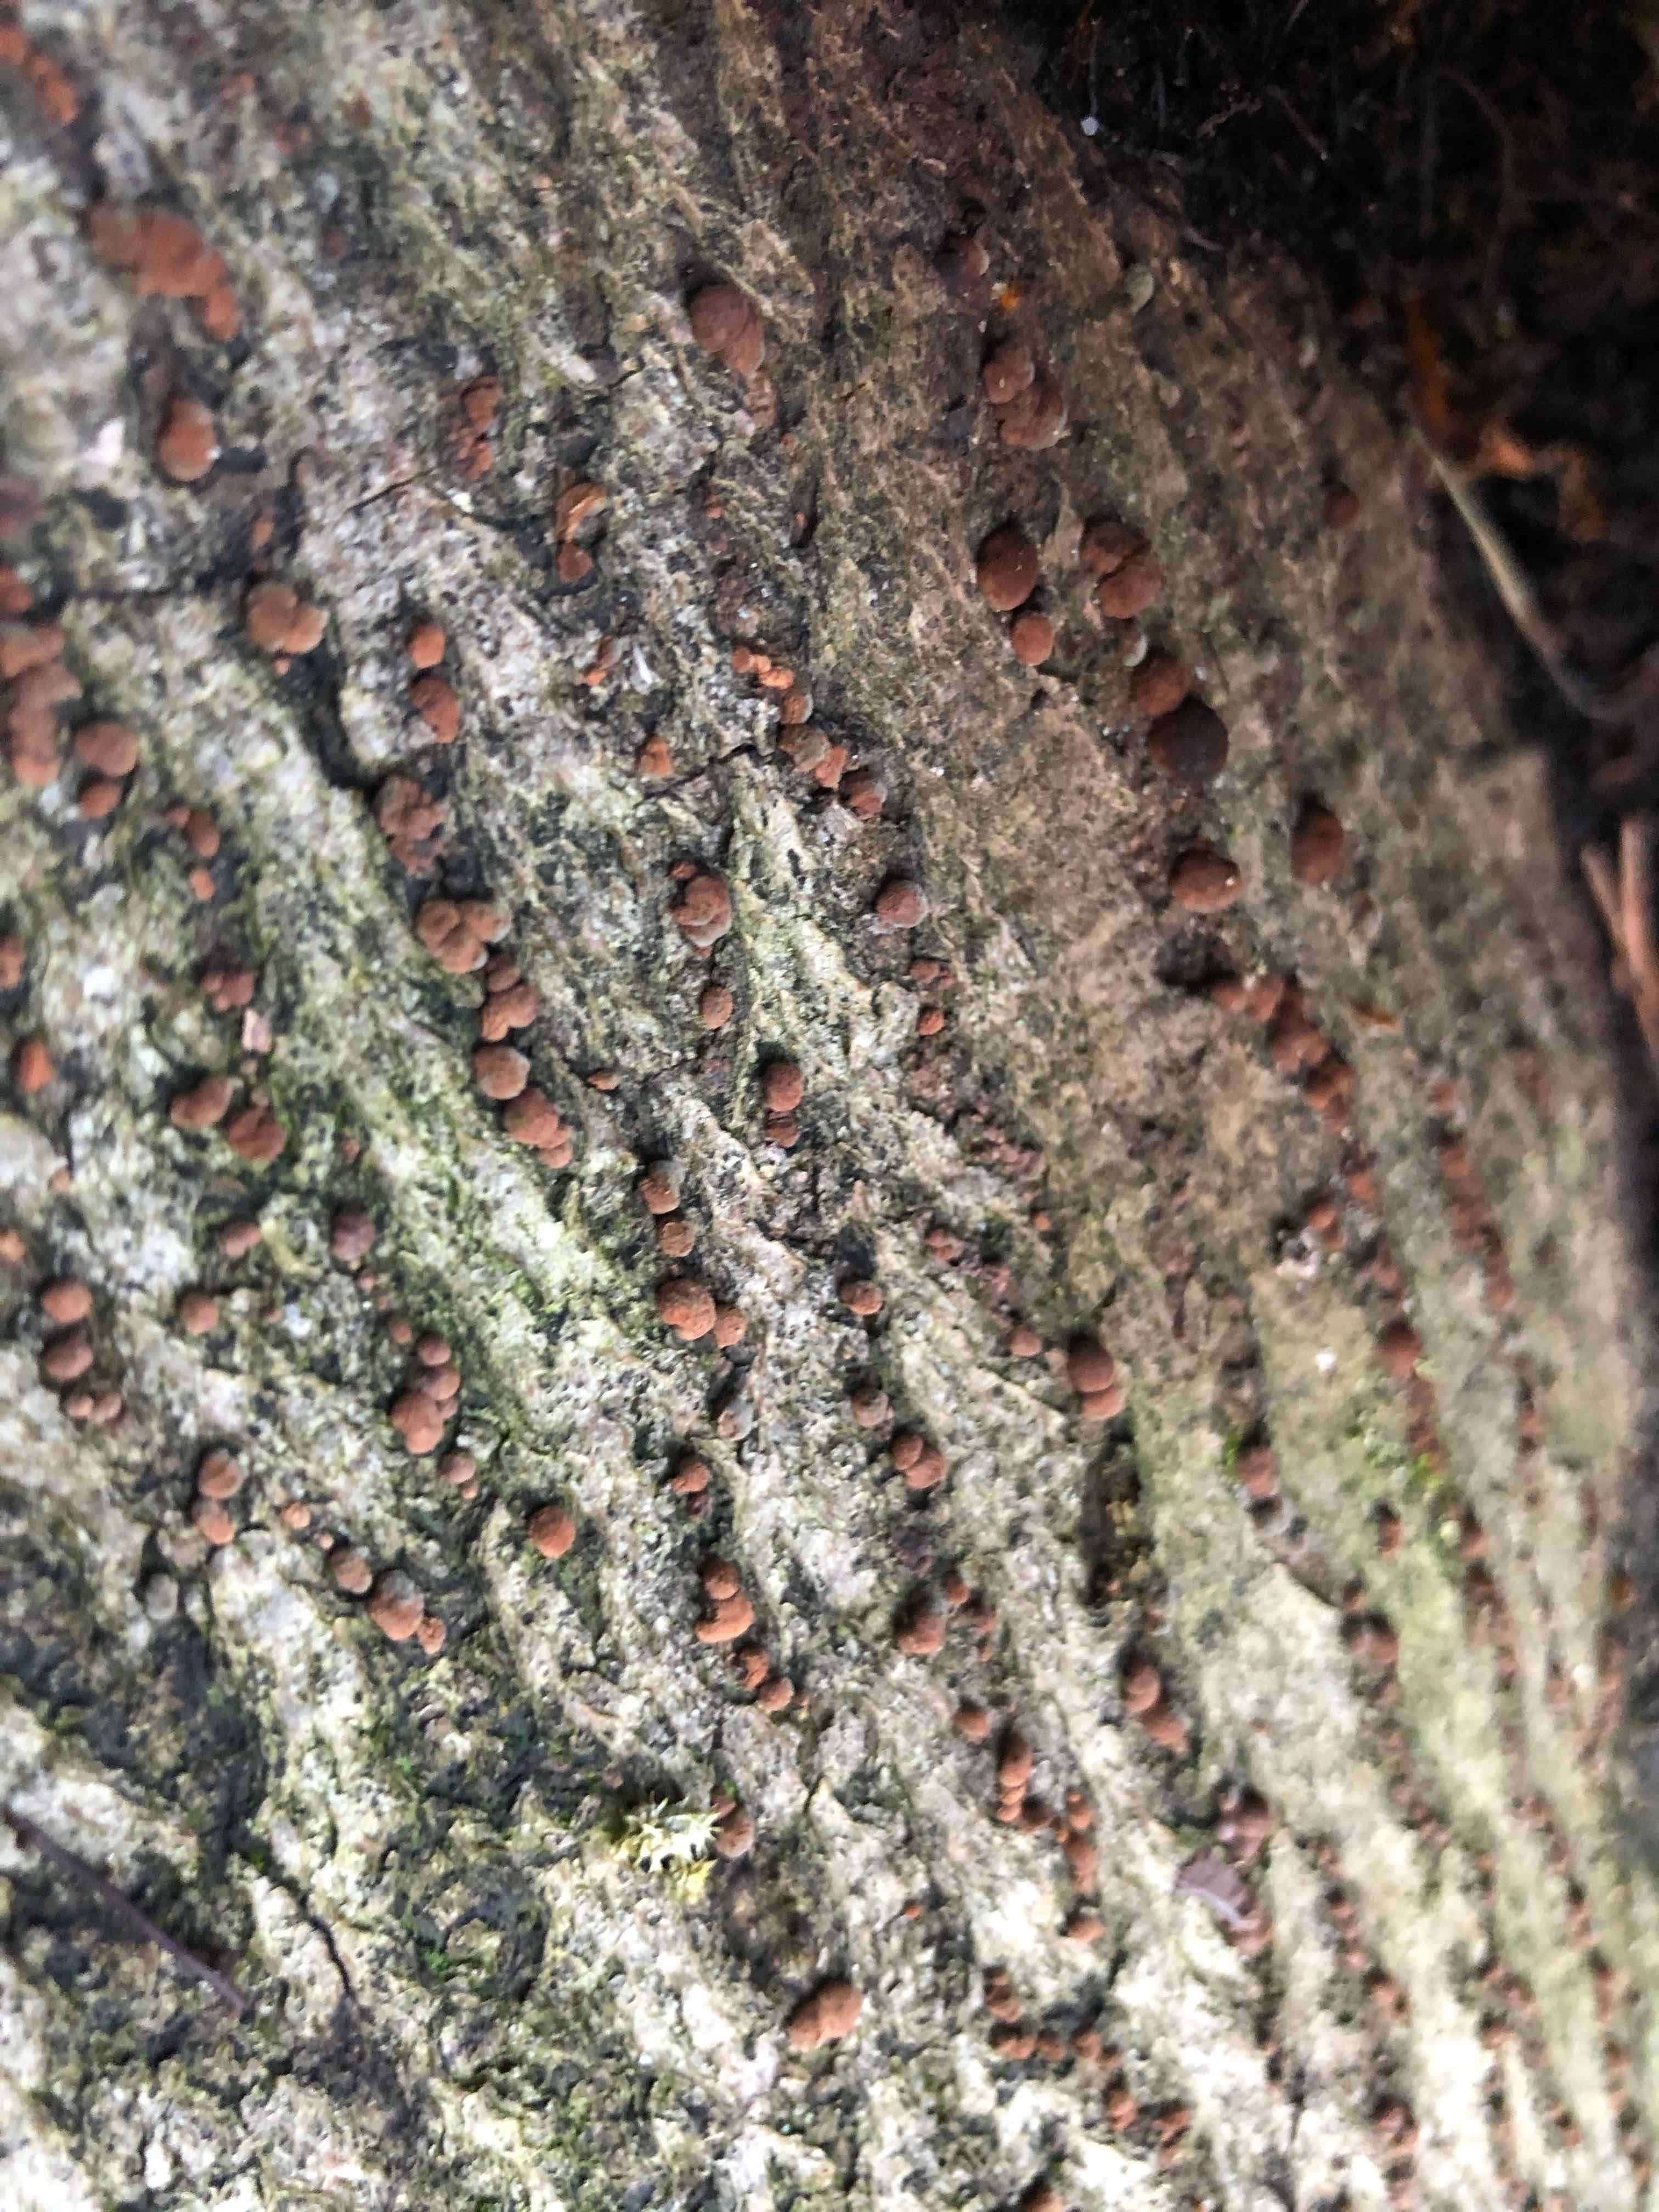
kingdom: Fungi
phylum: Ascomycota
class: Sordariomycetes
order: Xylariales
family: Hypoxylaceae
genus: Hypoxylon
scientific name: Hypoxylon fragiforme
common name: kuljordbær
